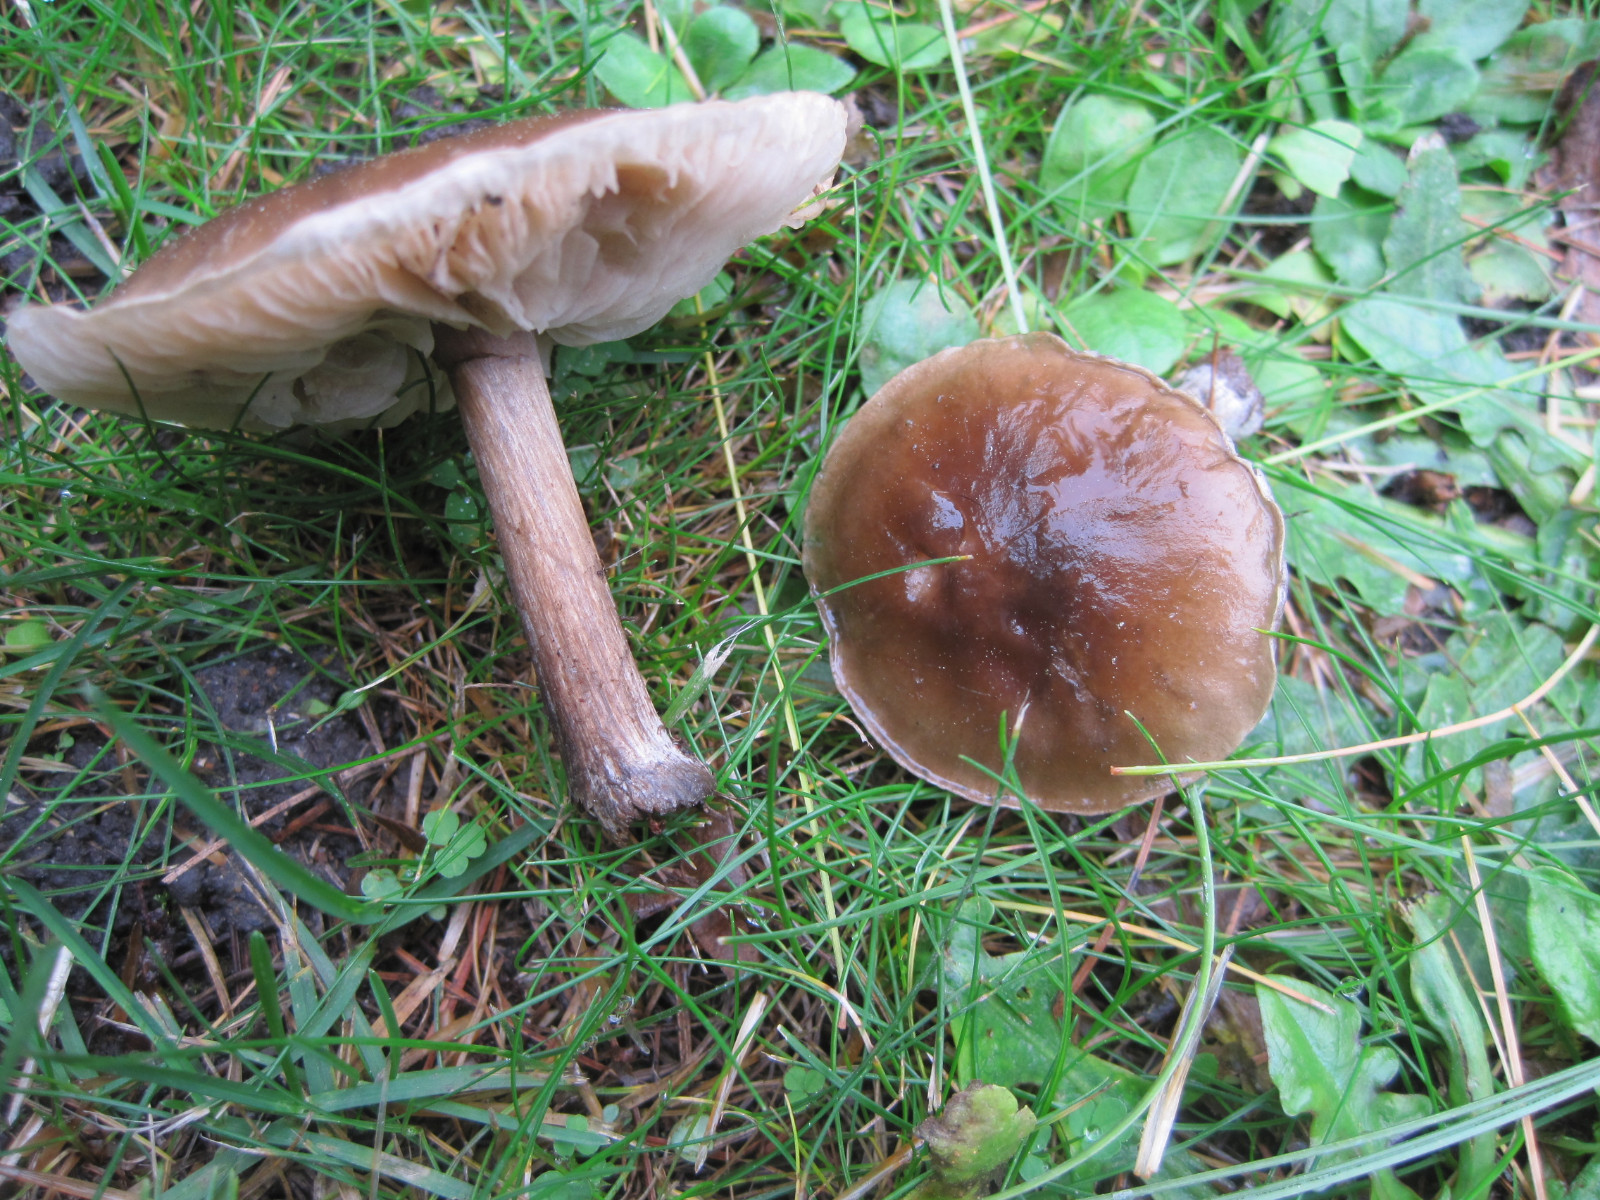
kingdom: Fungi
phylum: Basidiomycota
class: Agaricomycetes
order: Agaricales
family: Tricholomataceae
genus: Melanoleuca
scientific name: Melanoleuca polioleuca
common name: almindelig munkehat
